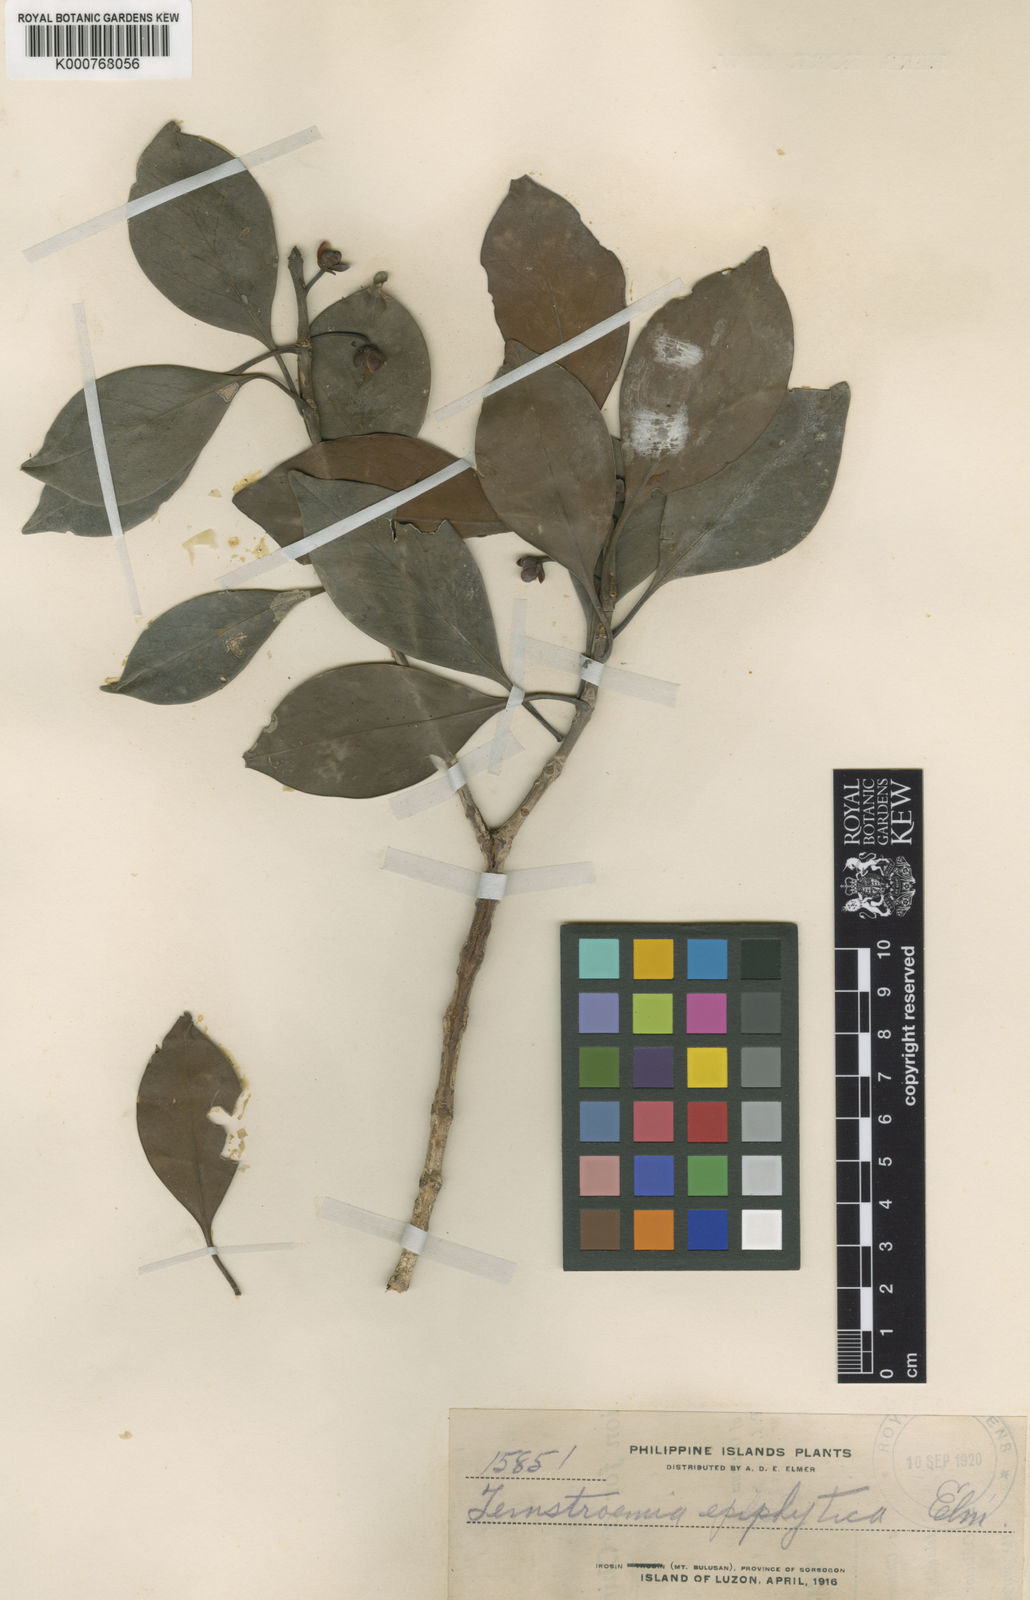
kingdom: Plantae
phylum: Tracheophyta
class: Magnoliopsida
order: Ericales
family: Pentaphylacaceae
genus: Ternstroemia
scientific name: Ternstroemia
